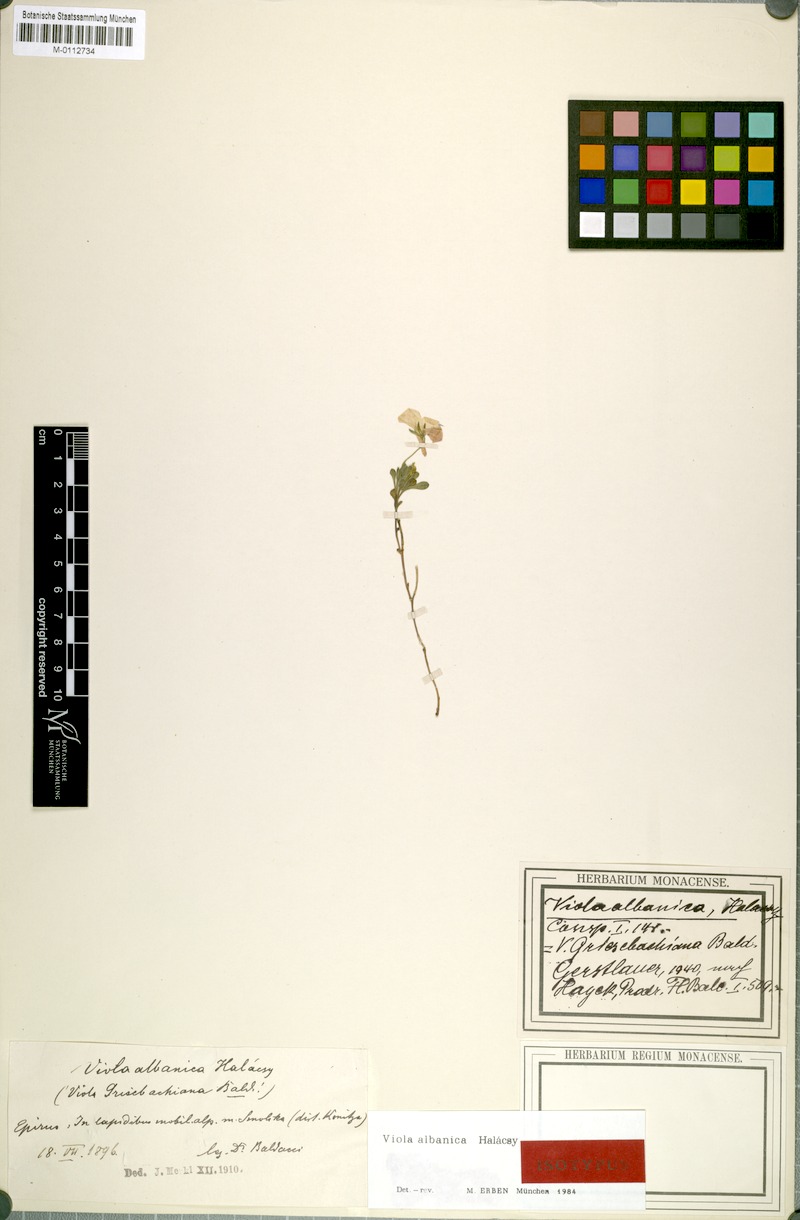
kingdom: Plantae
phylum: Tracheophyta
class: Magnoliopsida
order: Malpighiales
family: Violaceae
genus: Viola
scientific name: Viola albanica
